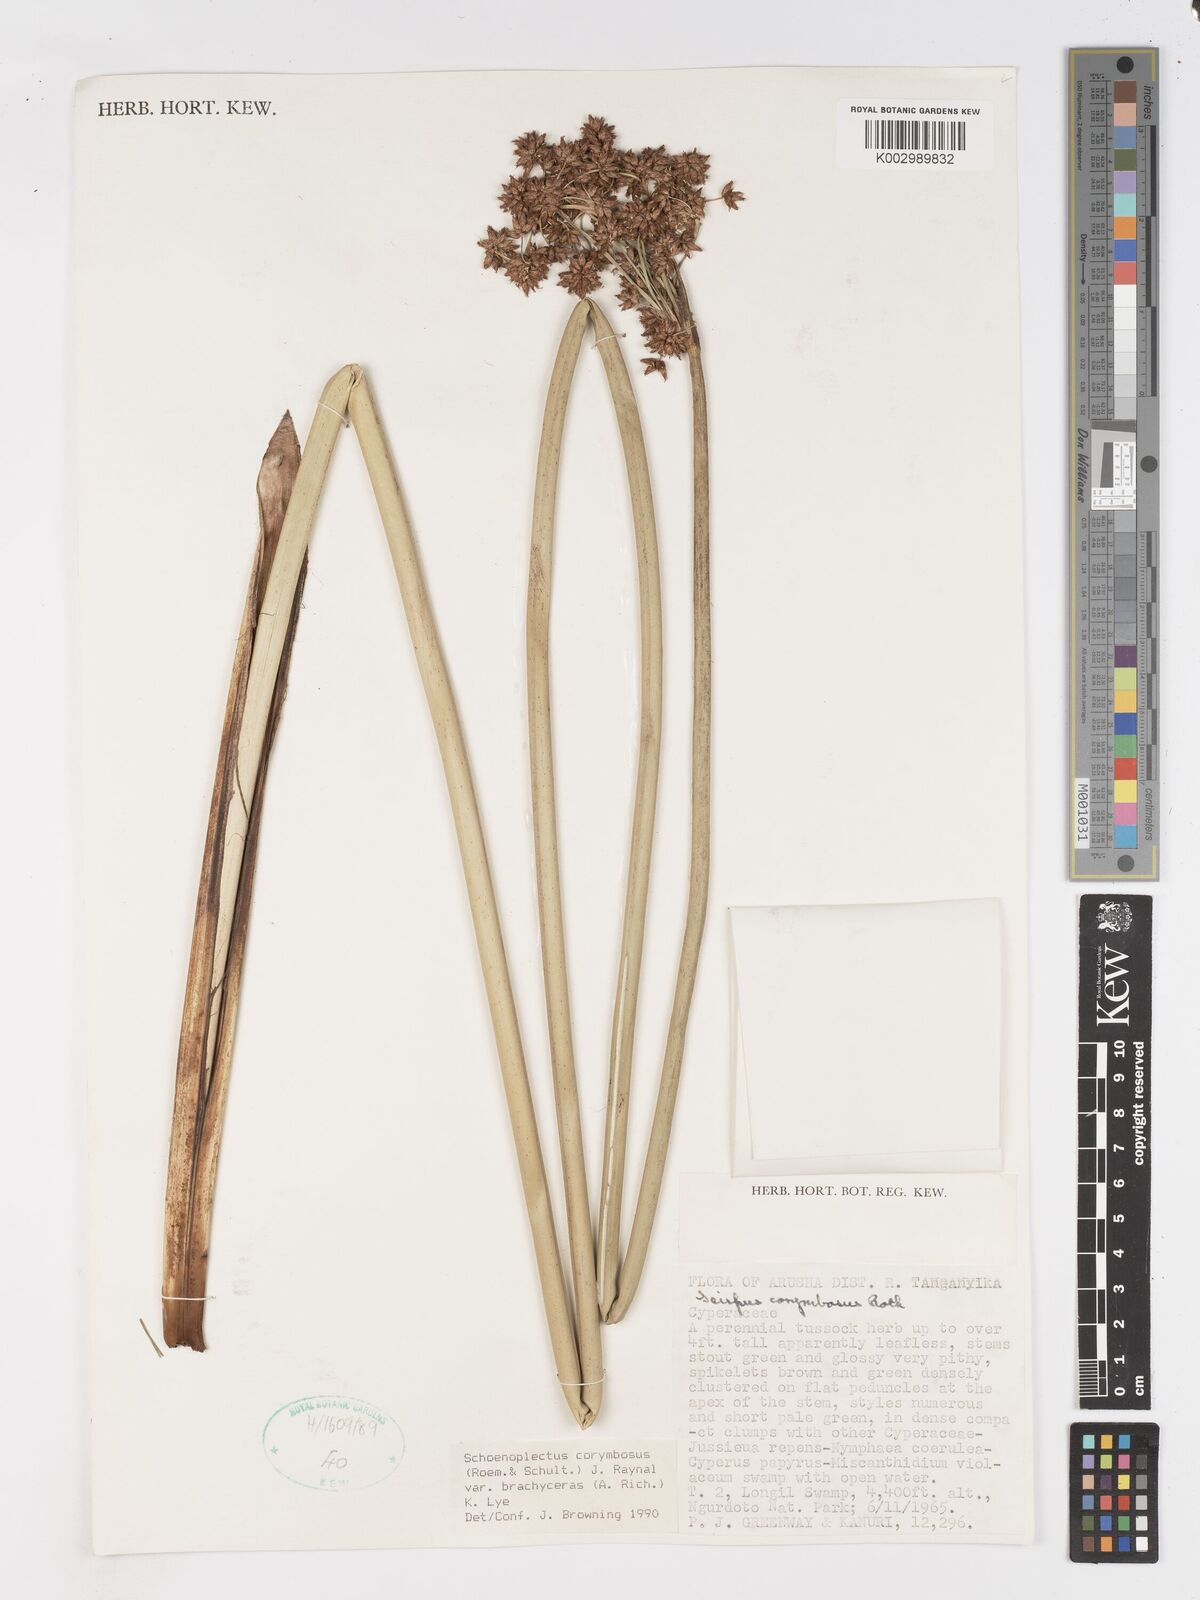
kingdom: Plantae
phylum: Tracheophyta
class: Liliopsida
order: Poales
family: Cyperaceae
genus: Schoenoplectiella
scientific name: Schoenoplectiella brachyceras
